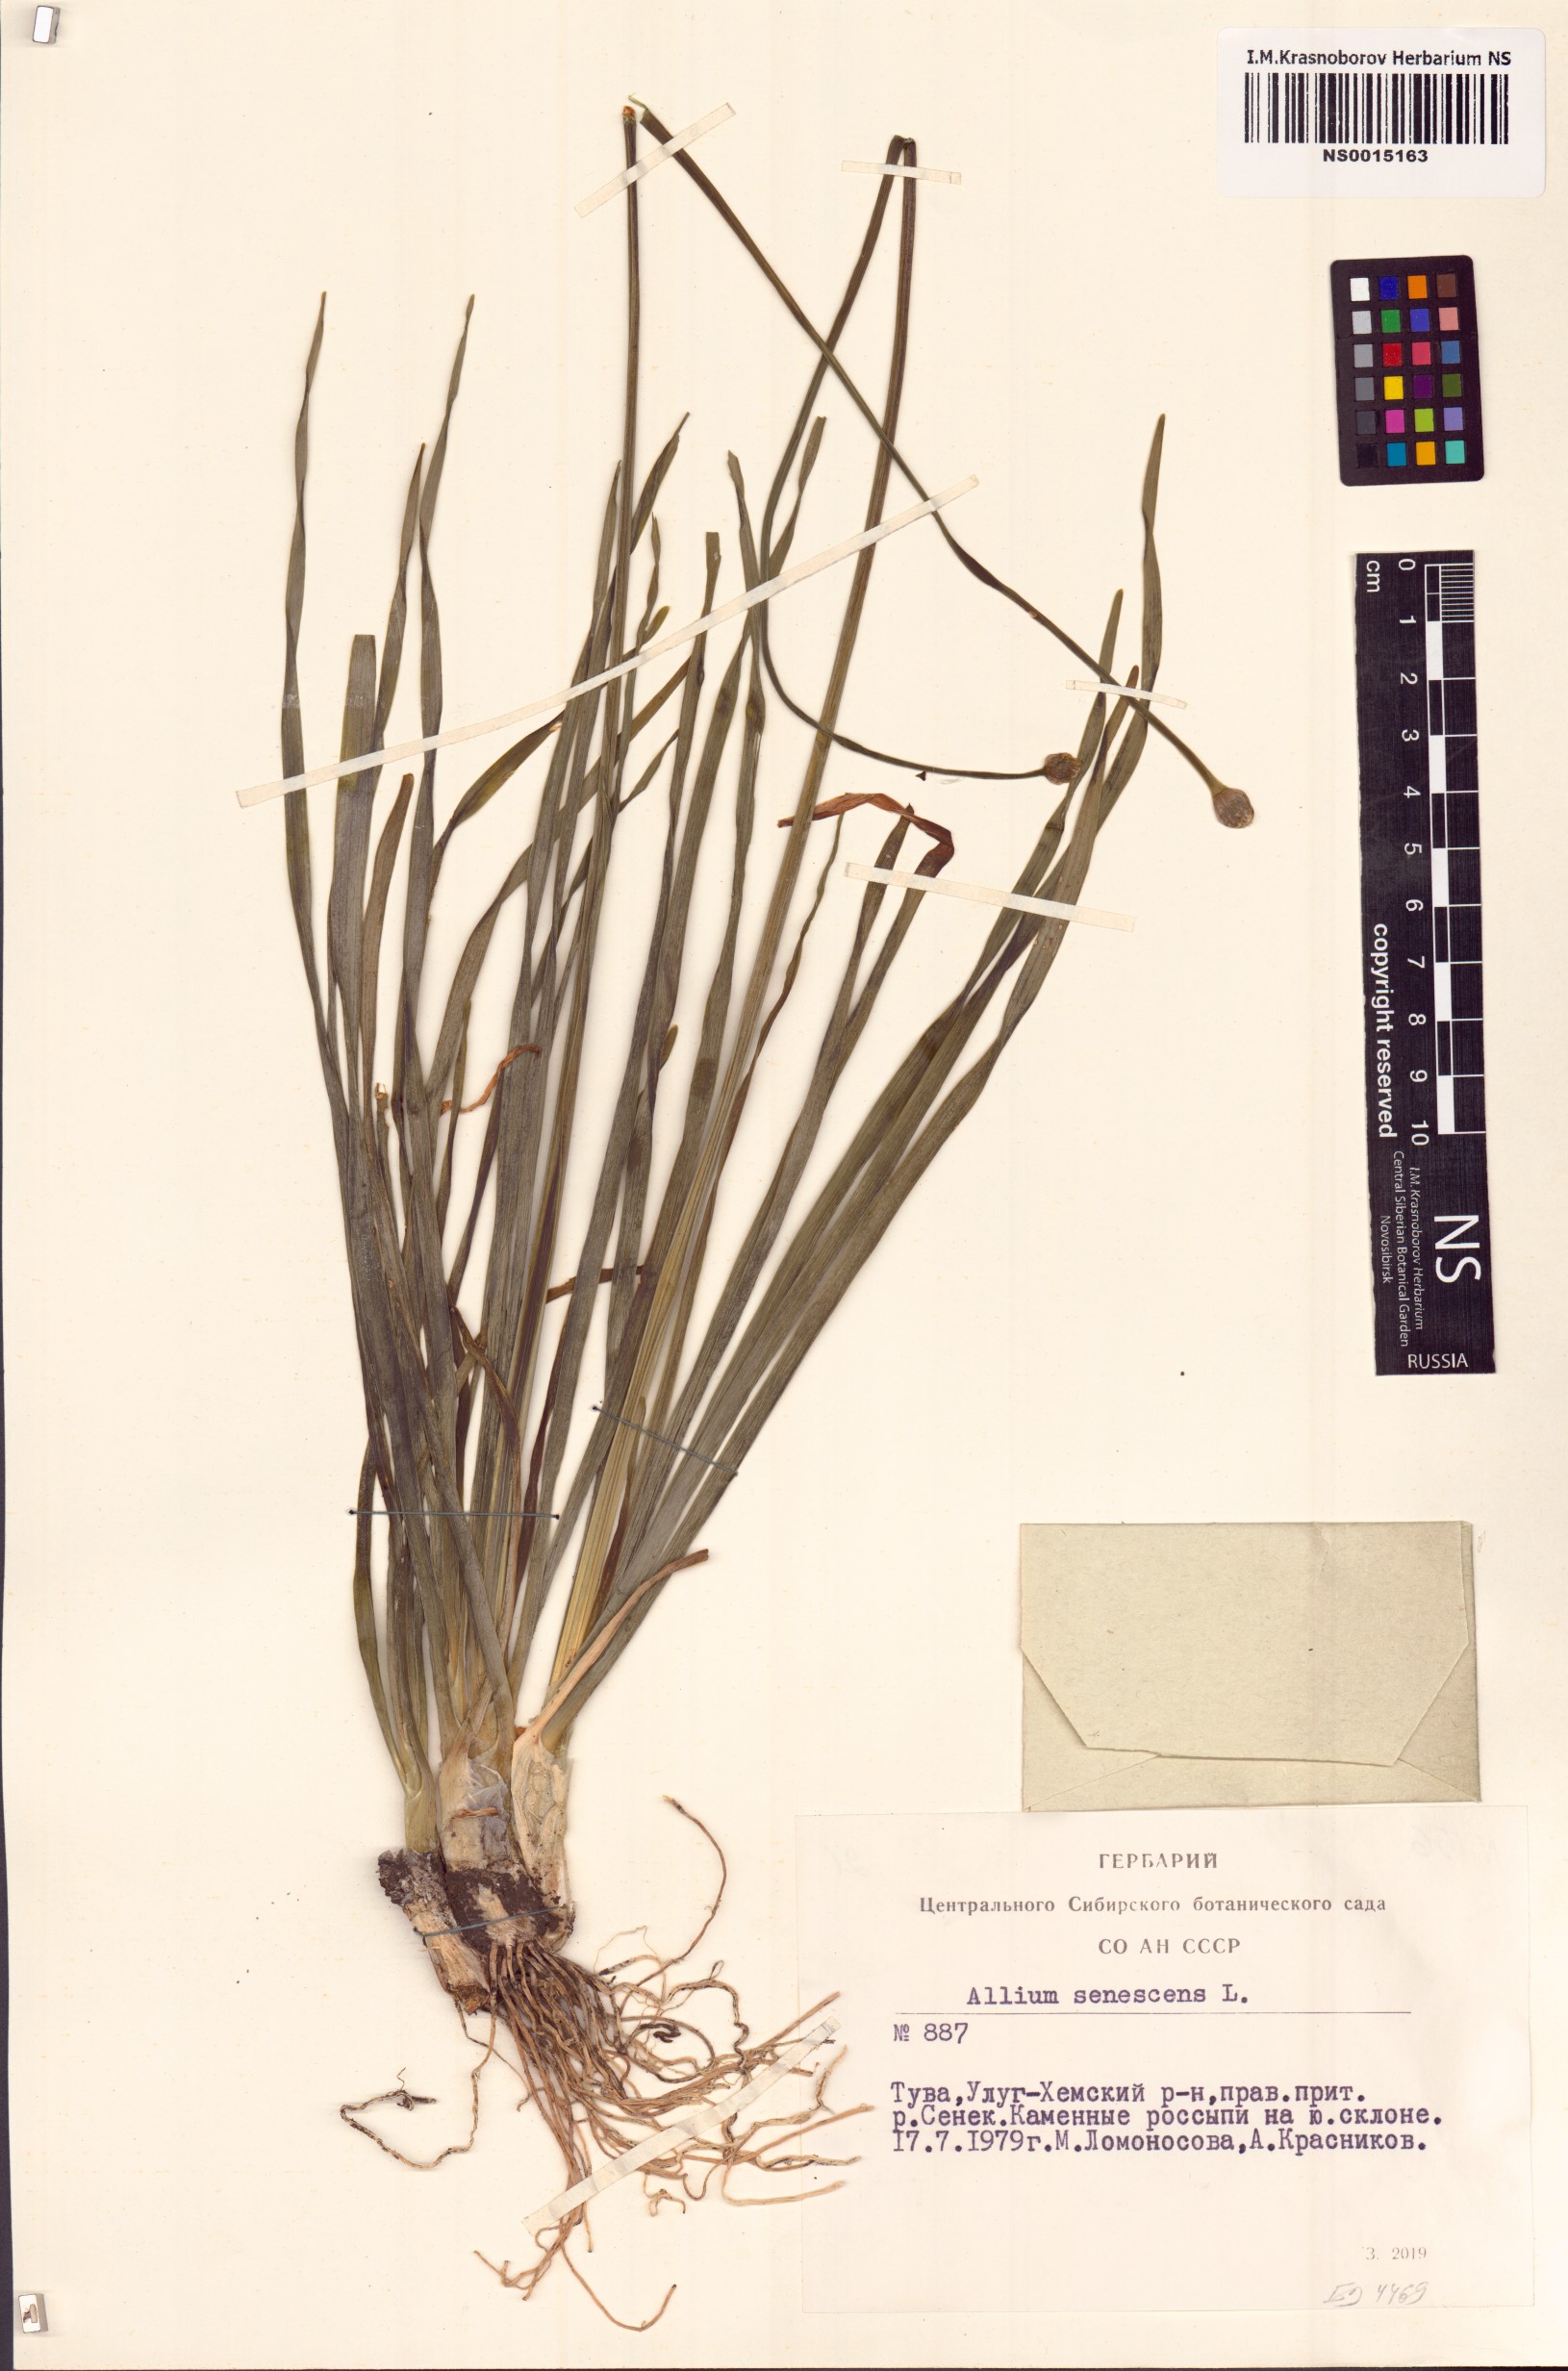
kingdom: Plantae
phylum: Tracheophyta
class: Liliopsida
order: Asparagales
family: Amaryllidaceae
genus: Allium
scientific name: Allium senescens
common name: German garlic
